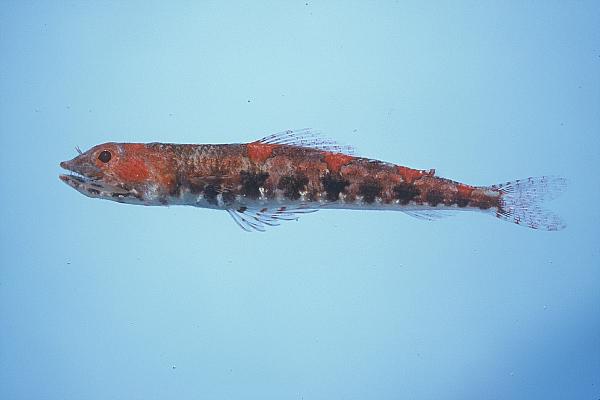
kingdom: Animalia
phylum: Chordata
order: Aulopiformes
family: Synodontidae
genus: Synodus
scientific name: Synodus binotatus
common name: Twospot lizardfish
